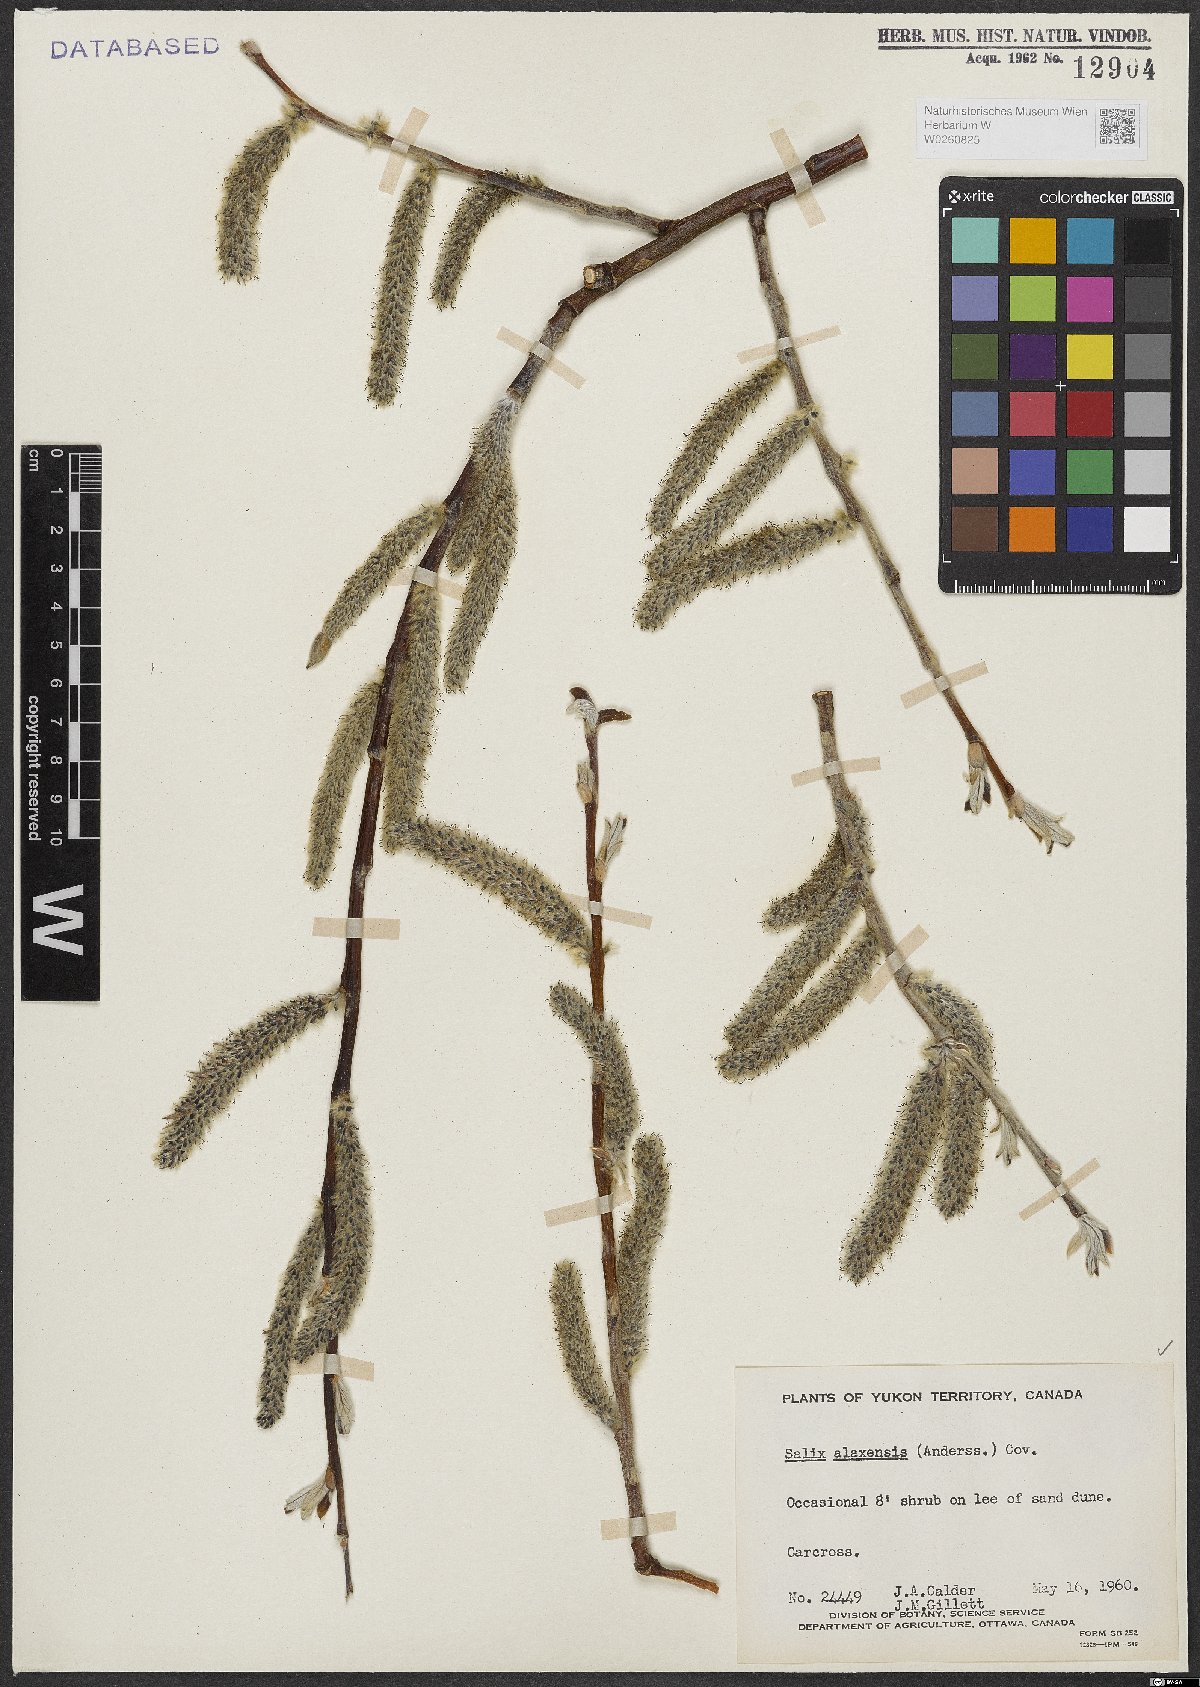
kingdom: Plantae
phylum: Tracheophyta
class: Magnoliopsida
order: Malpighiales
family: Salicaceae
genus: Salix
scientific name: Salix alaxensis
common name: Feltleaf willow
